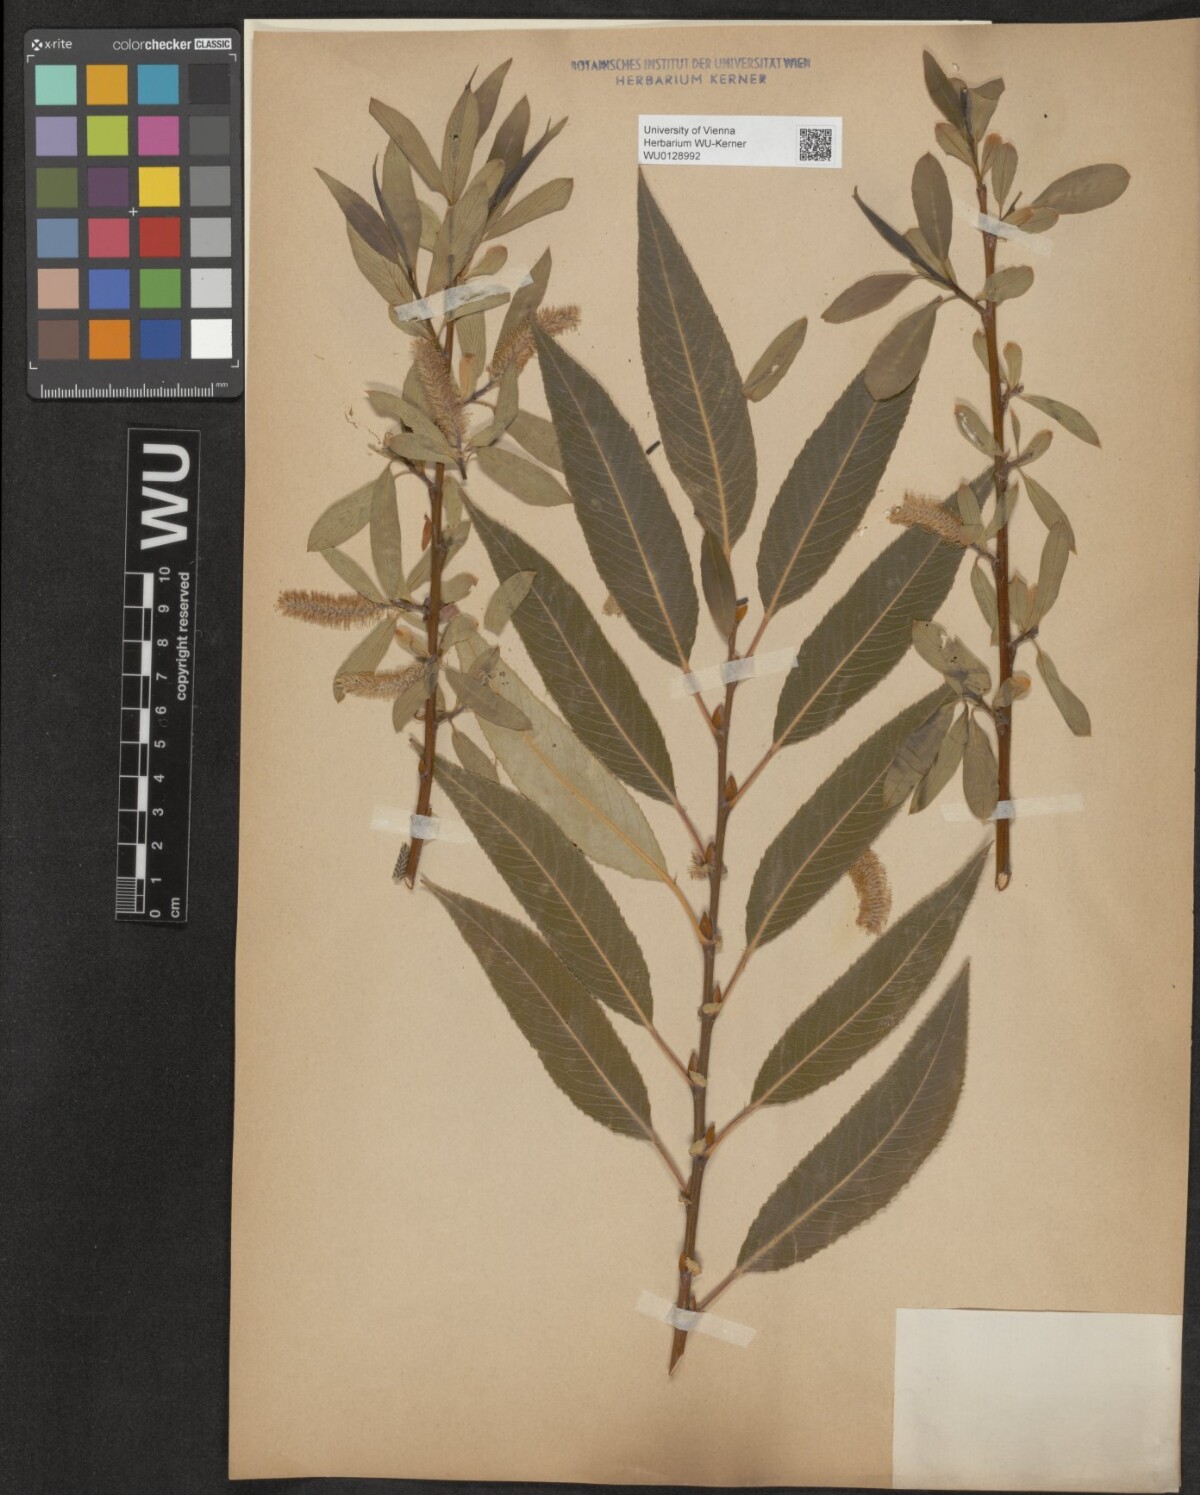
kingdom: Plantae
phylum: Tracheophyta
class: Magnoliopsida
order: Malpighiales
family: Salicaceae
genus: Salix
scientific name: Salix fragilis
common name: Crack willow
